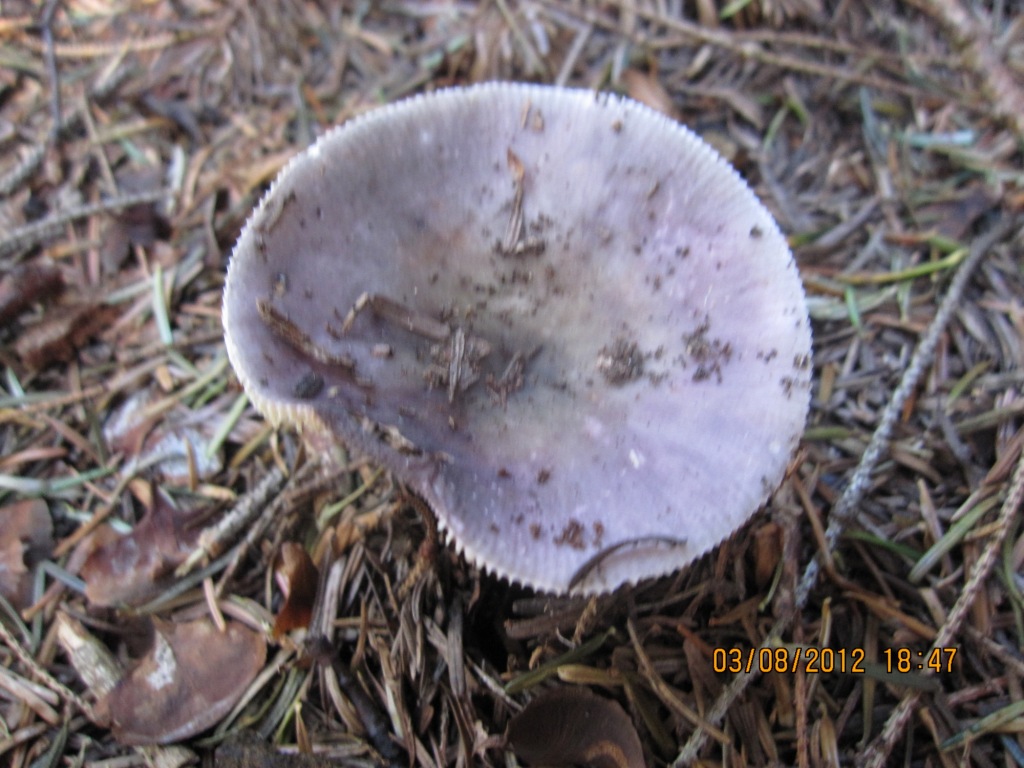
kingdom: Fungi
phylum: Basidiomycota
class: Agaricomycetes
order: Russulales
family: Russulaceae
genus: Russula
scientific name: Russula ionochlora
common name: violetgrøn skørhat
